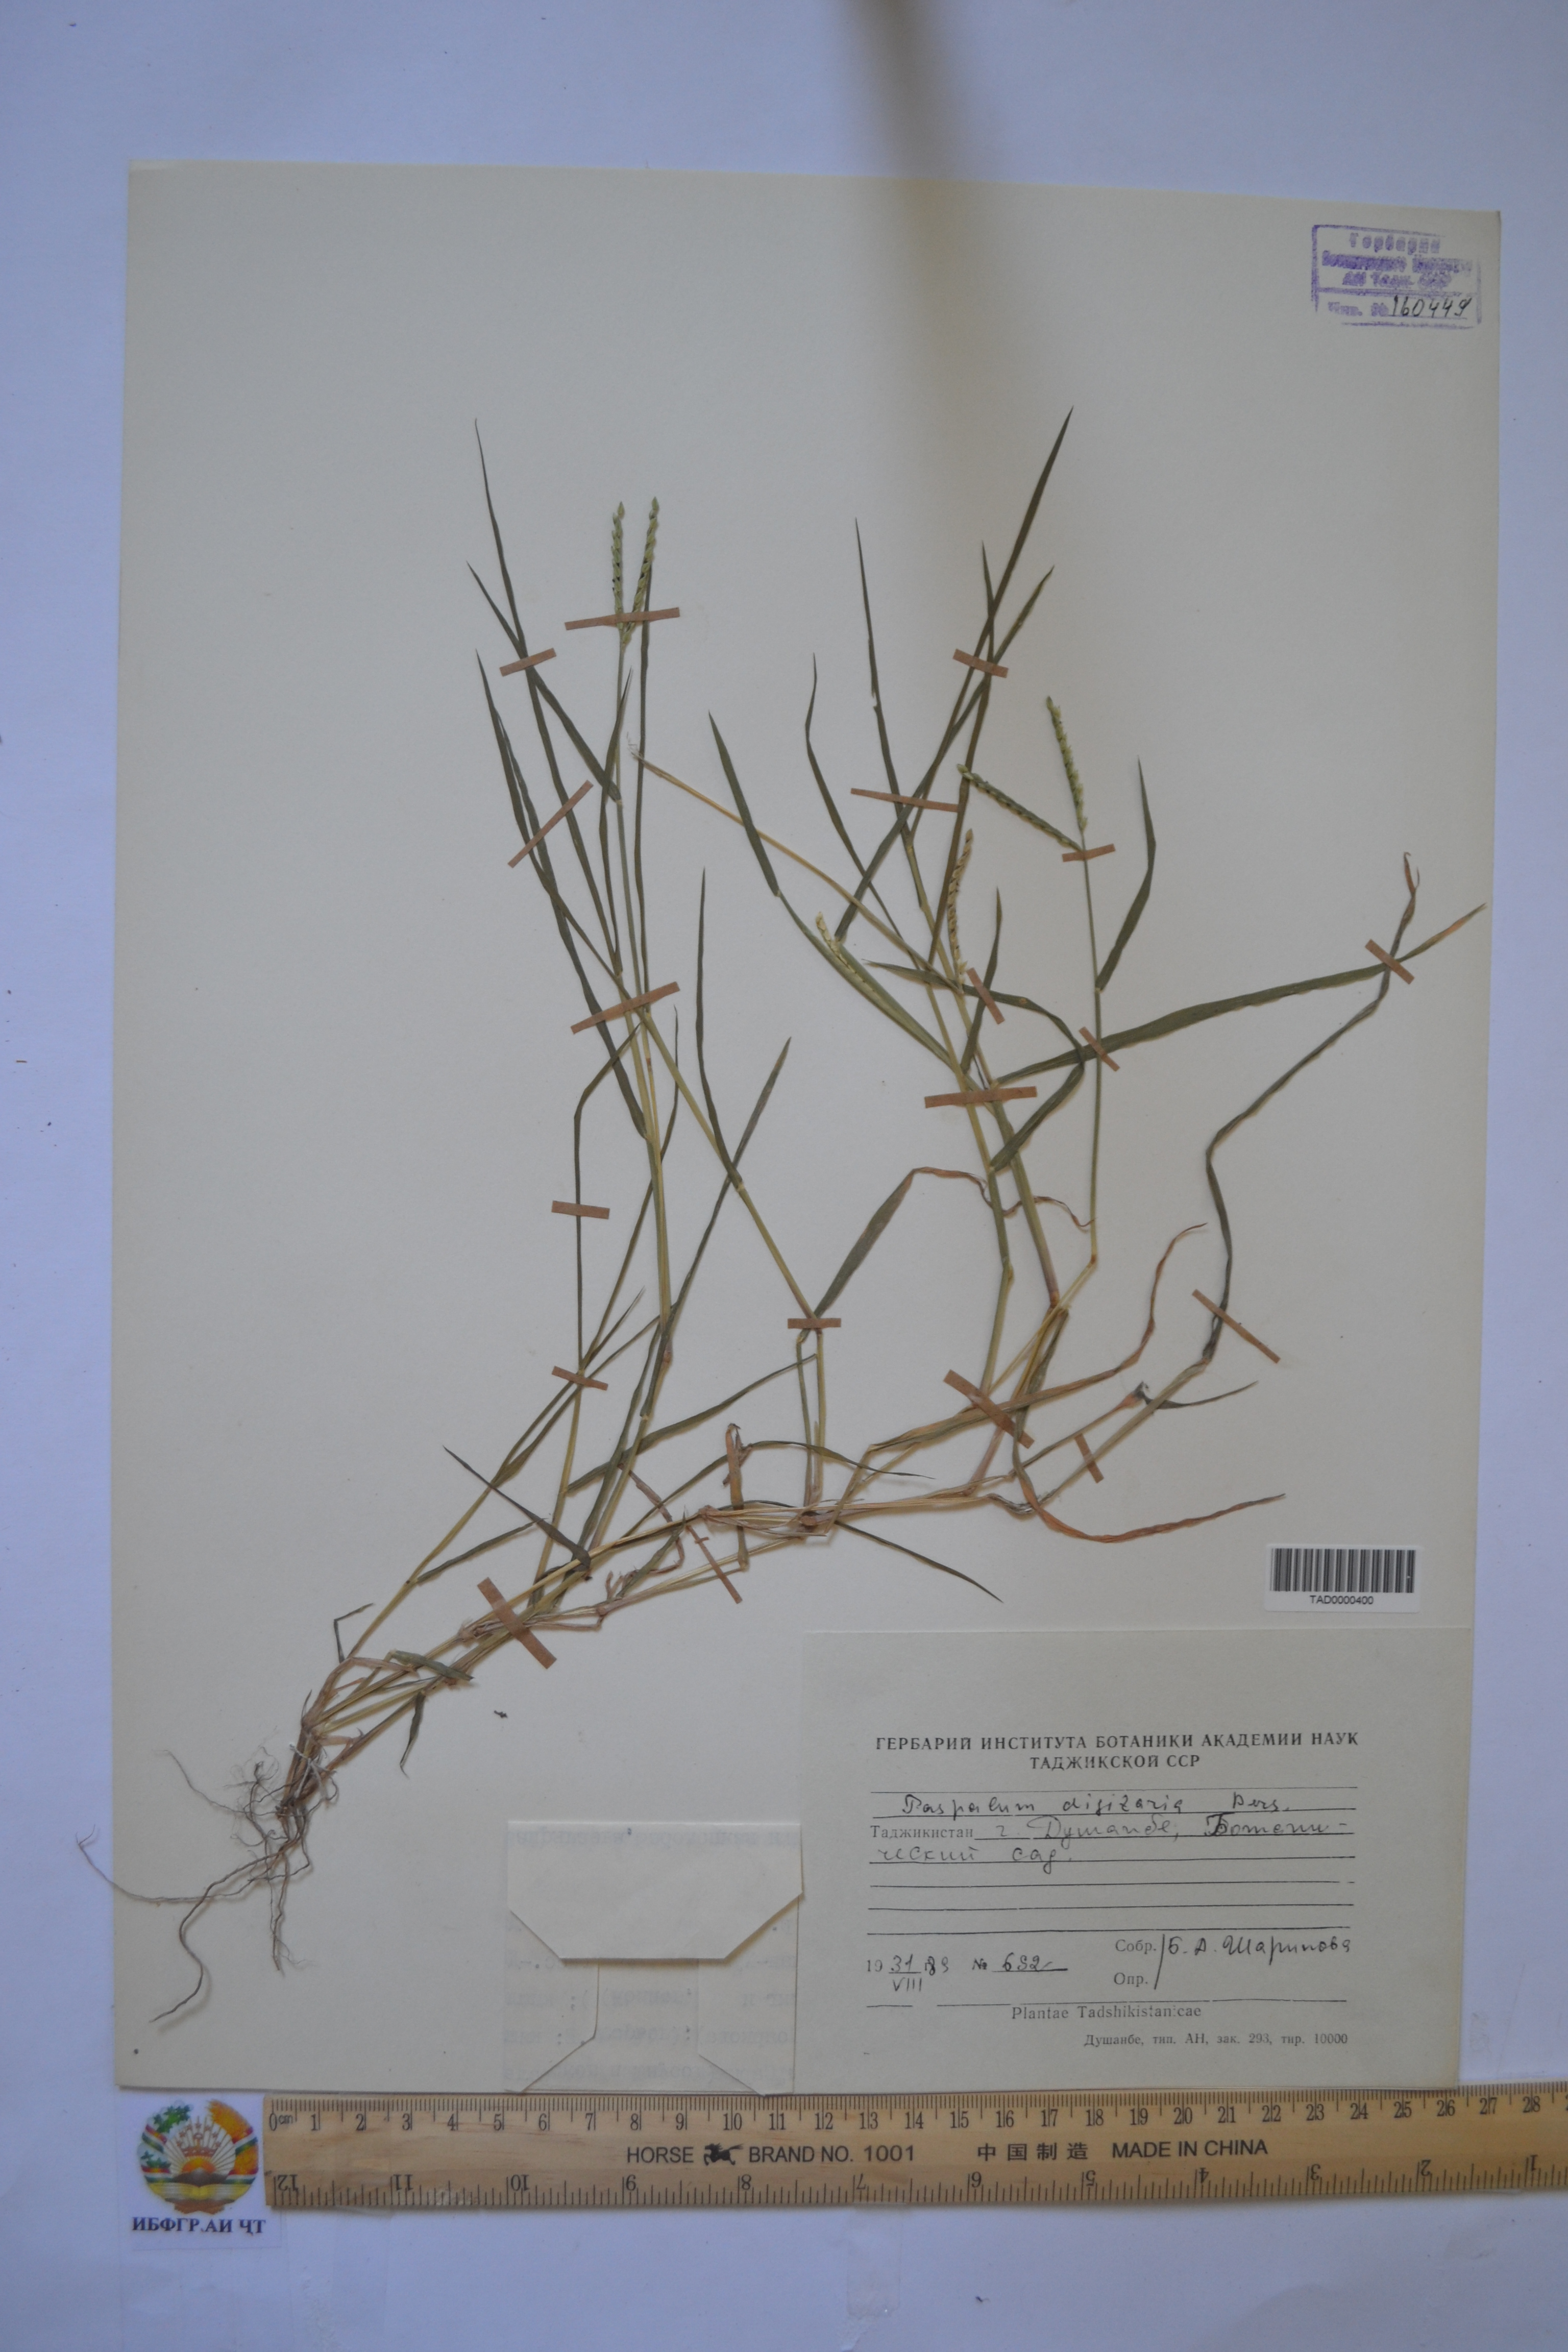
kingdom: Plantae
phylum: Tracheophyta
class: Liliopsida
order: Poales
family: Poaceae
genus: Paspalum
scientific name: Paspalum distichum
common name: Knotgrass
